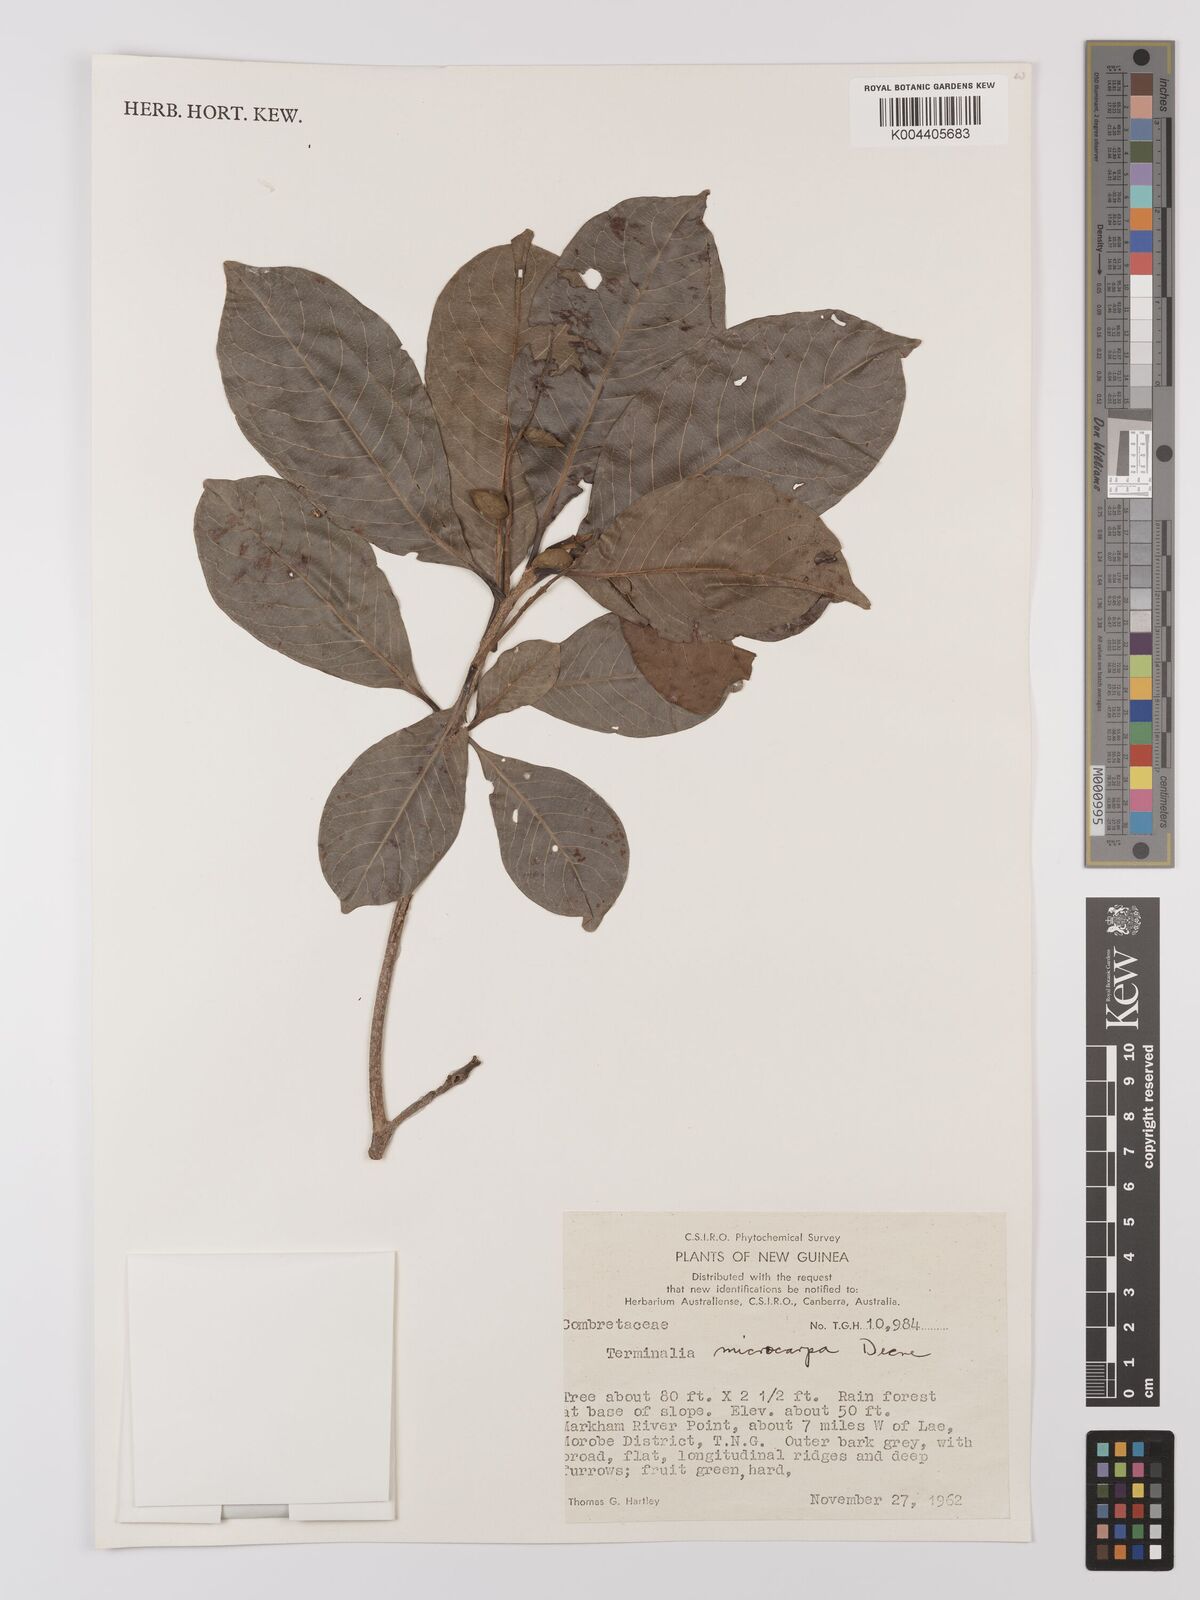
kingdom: Plantae
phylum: Tracheophyta
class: Magnoliopsida
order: Myrtales
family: Combretaceae
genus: Terminalia
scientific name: Terminalia
